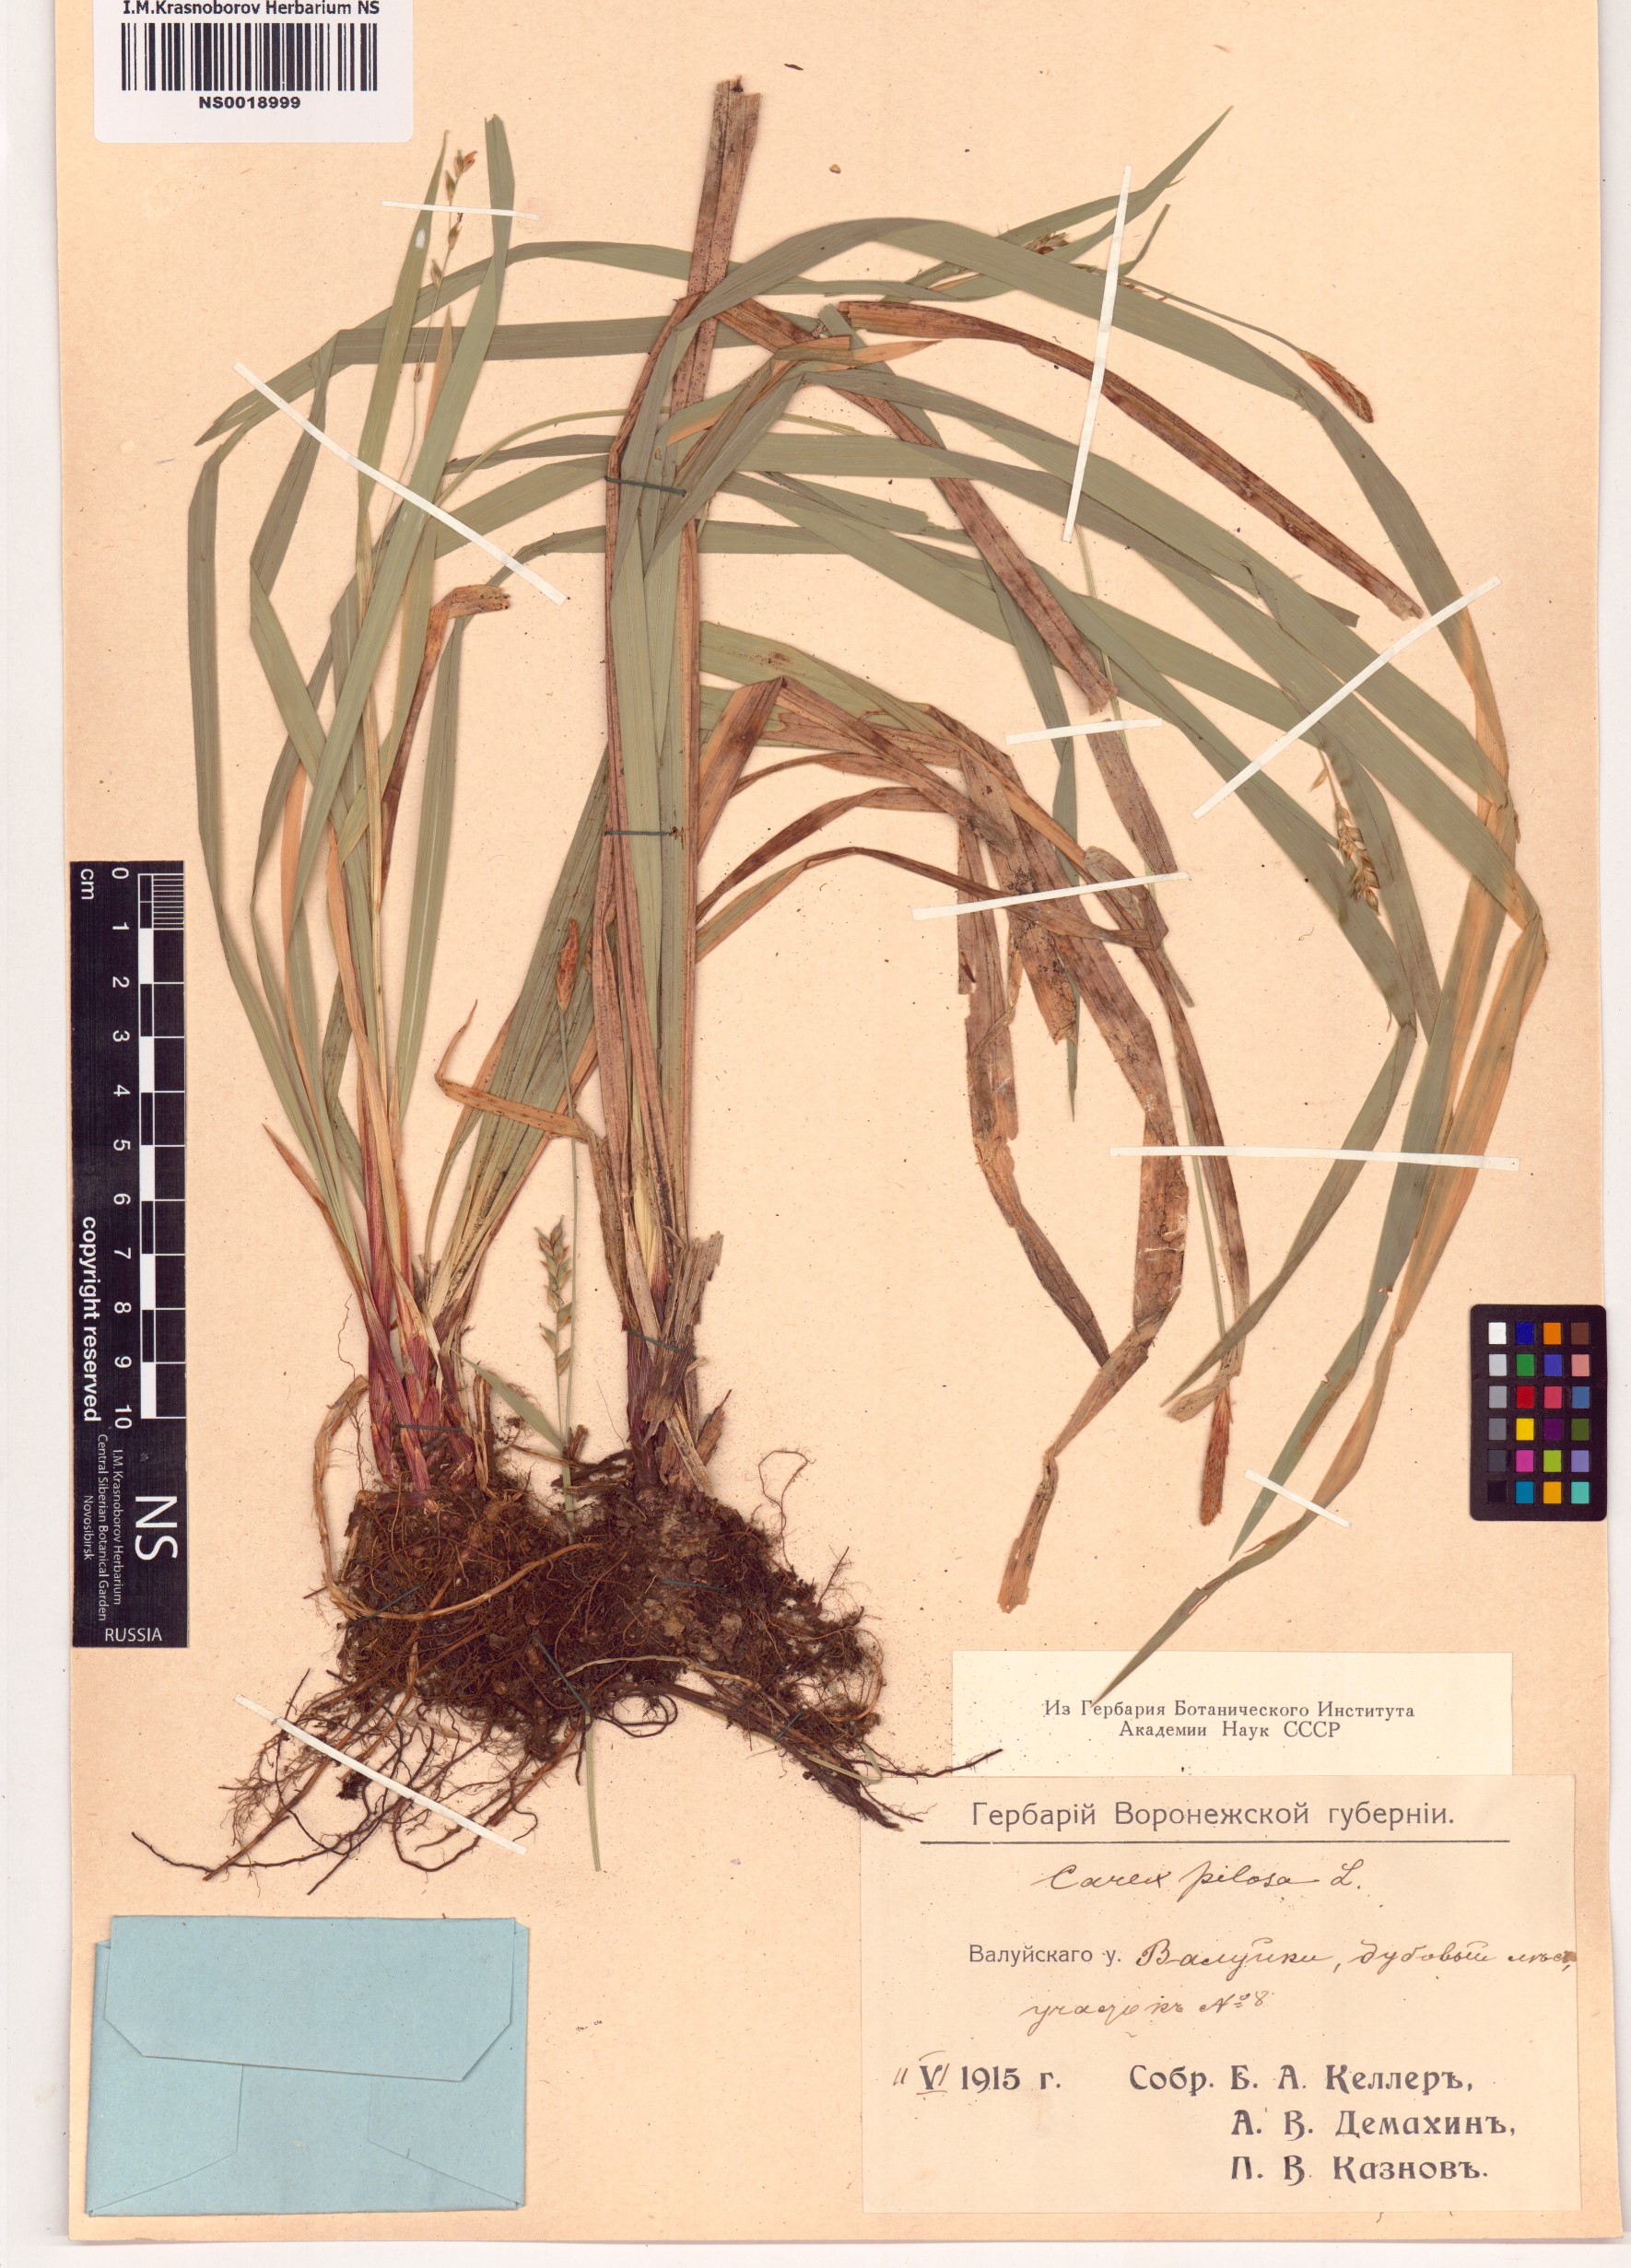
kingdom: Plantae
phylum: Tracheophyta
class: Liliopsida
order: Poales
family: Cyperaceae
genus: Carex
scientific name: Carex pilosa
